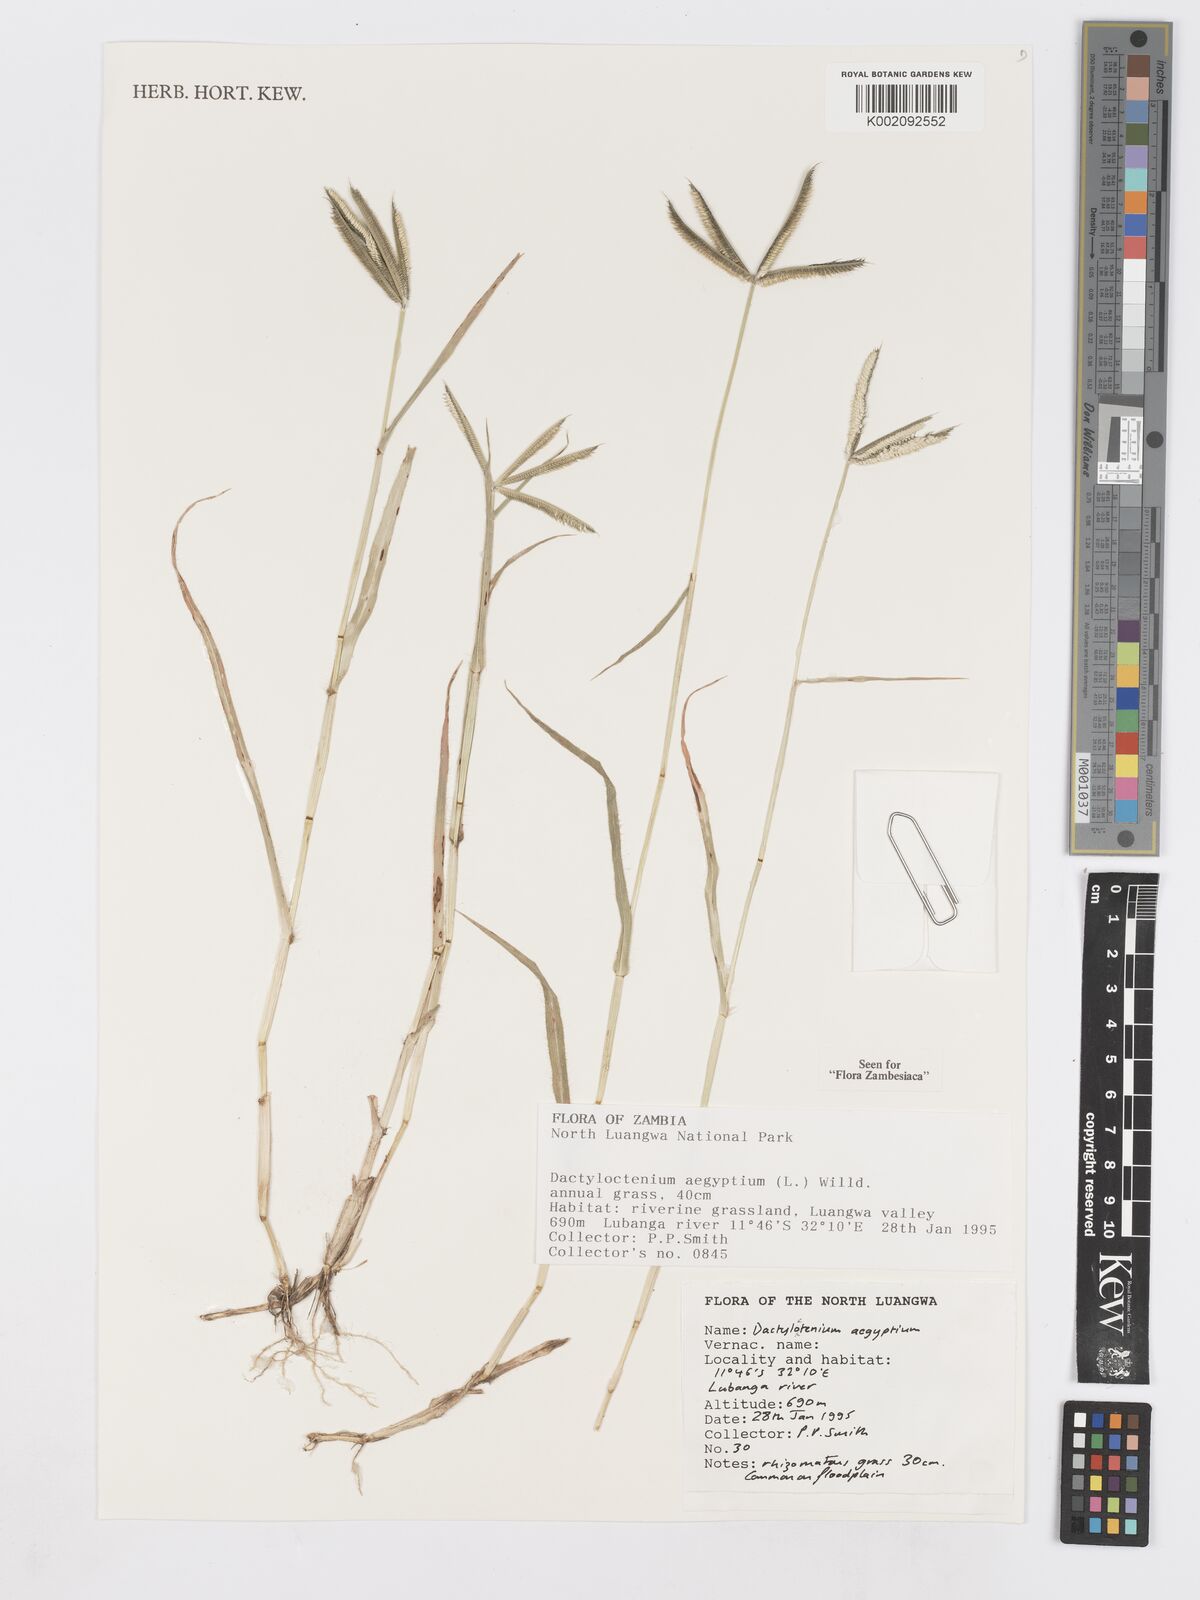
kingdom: Plantae
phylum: Tracheophyta
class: Liliopsida
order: Poales
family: Poaceae
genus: Dactyloctenium
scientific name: Dactyloctenium aegyptium
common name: Egyptian grass
